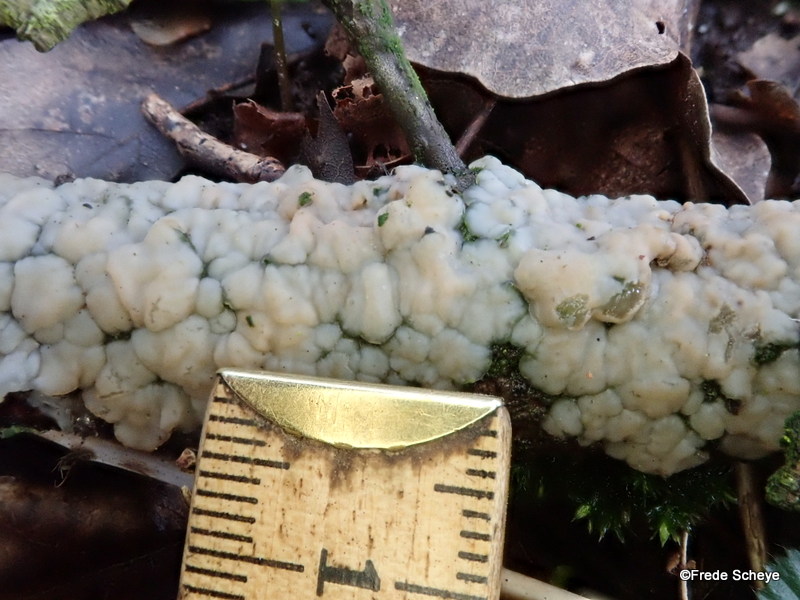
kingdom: Fungi
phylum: Basidiomycota
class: Agaricomycetes
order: Auriculariales
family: Auriculariaceae
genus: Exidia
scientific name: Exidia thuretiana
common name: hvidlig bævretop
